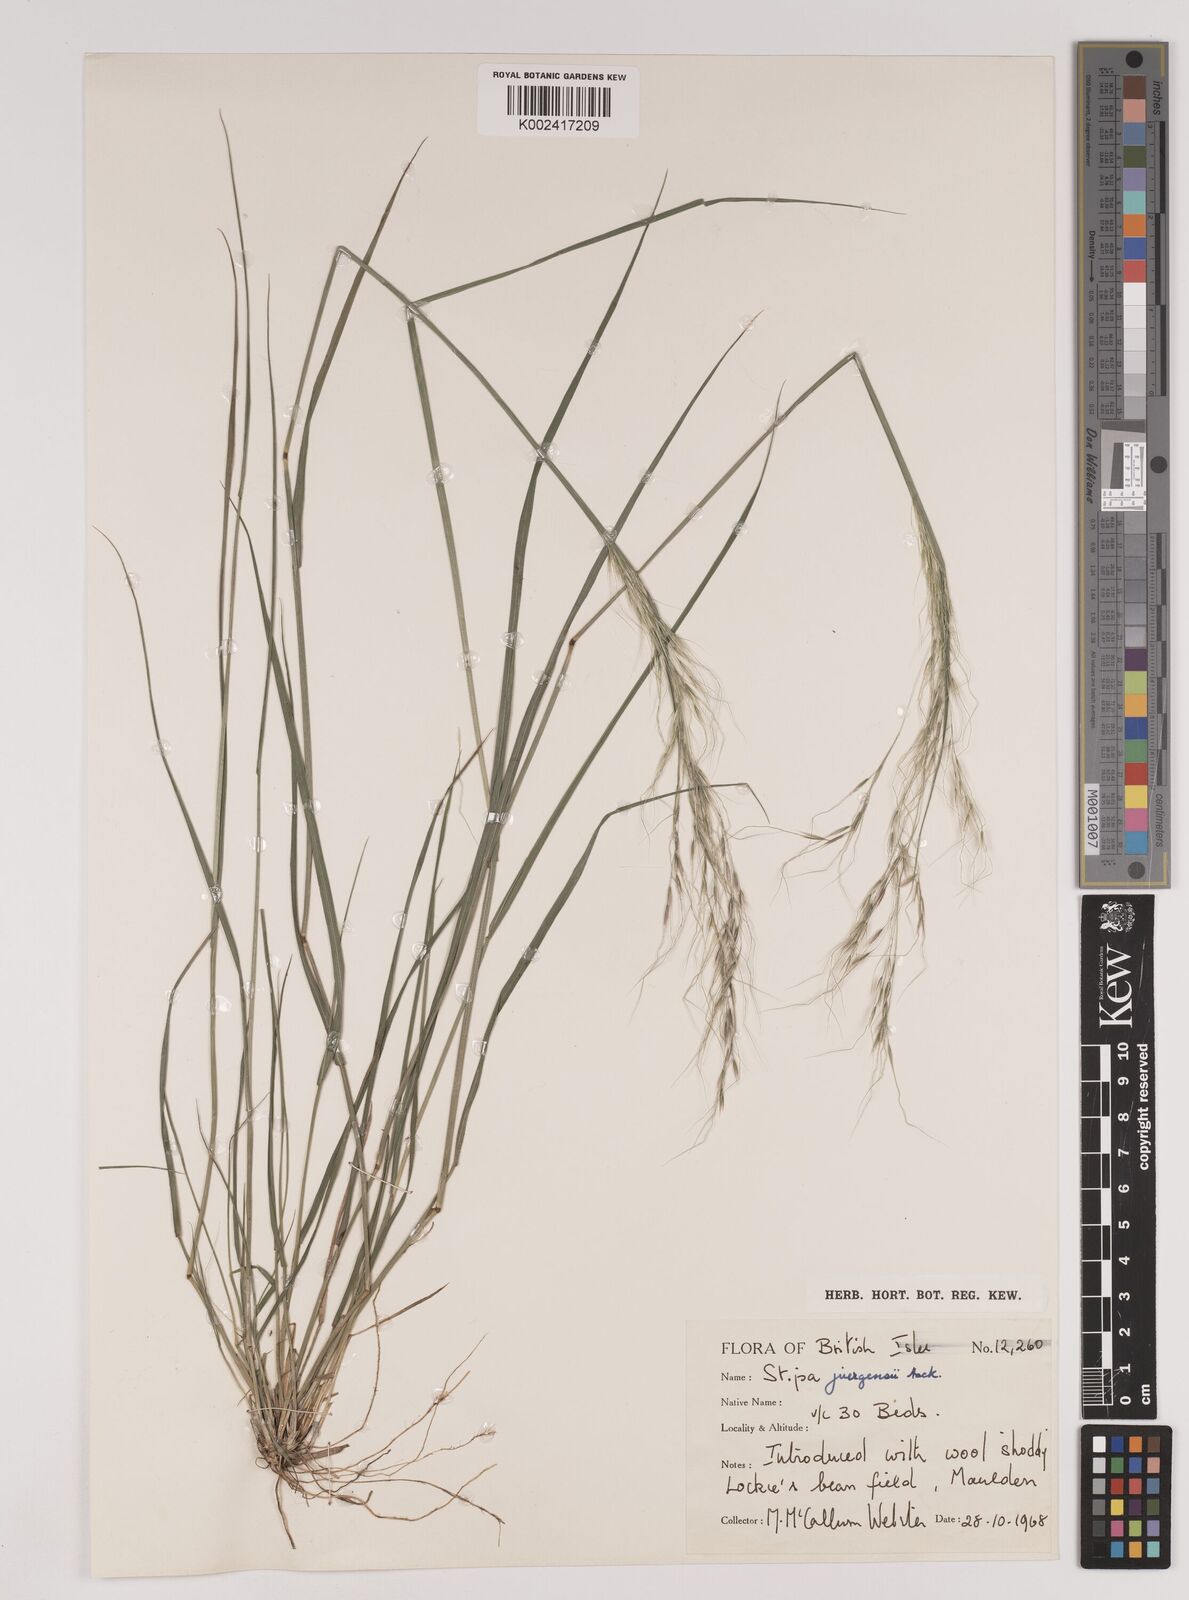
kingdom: Plantae
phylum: Tracheophyta
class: Liliopsida
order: Poales
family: Poaceae
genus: Nassella
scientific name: Nassella juergensii
